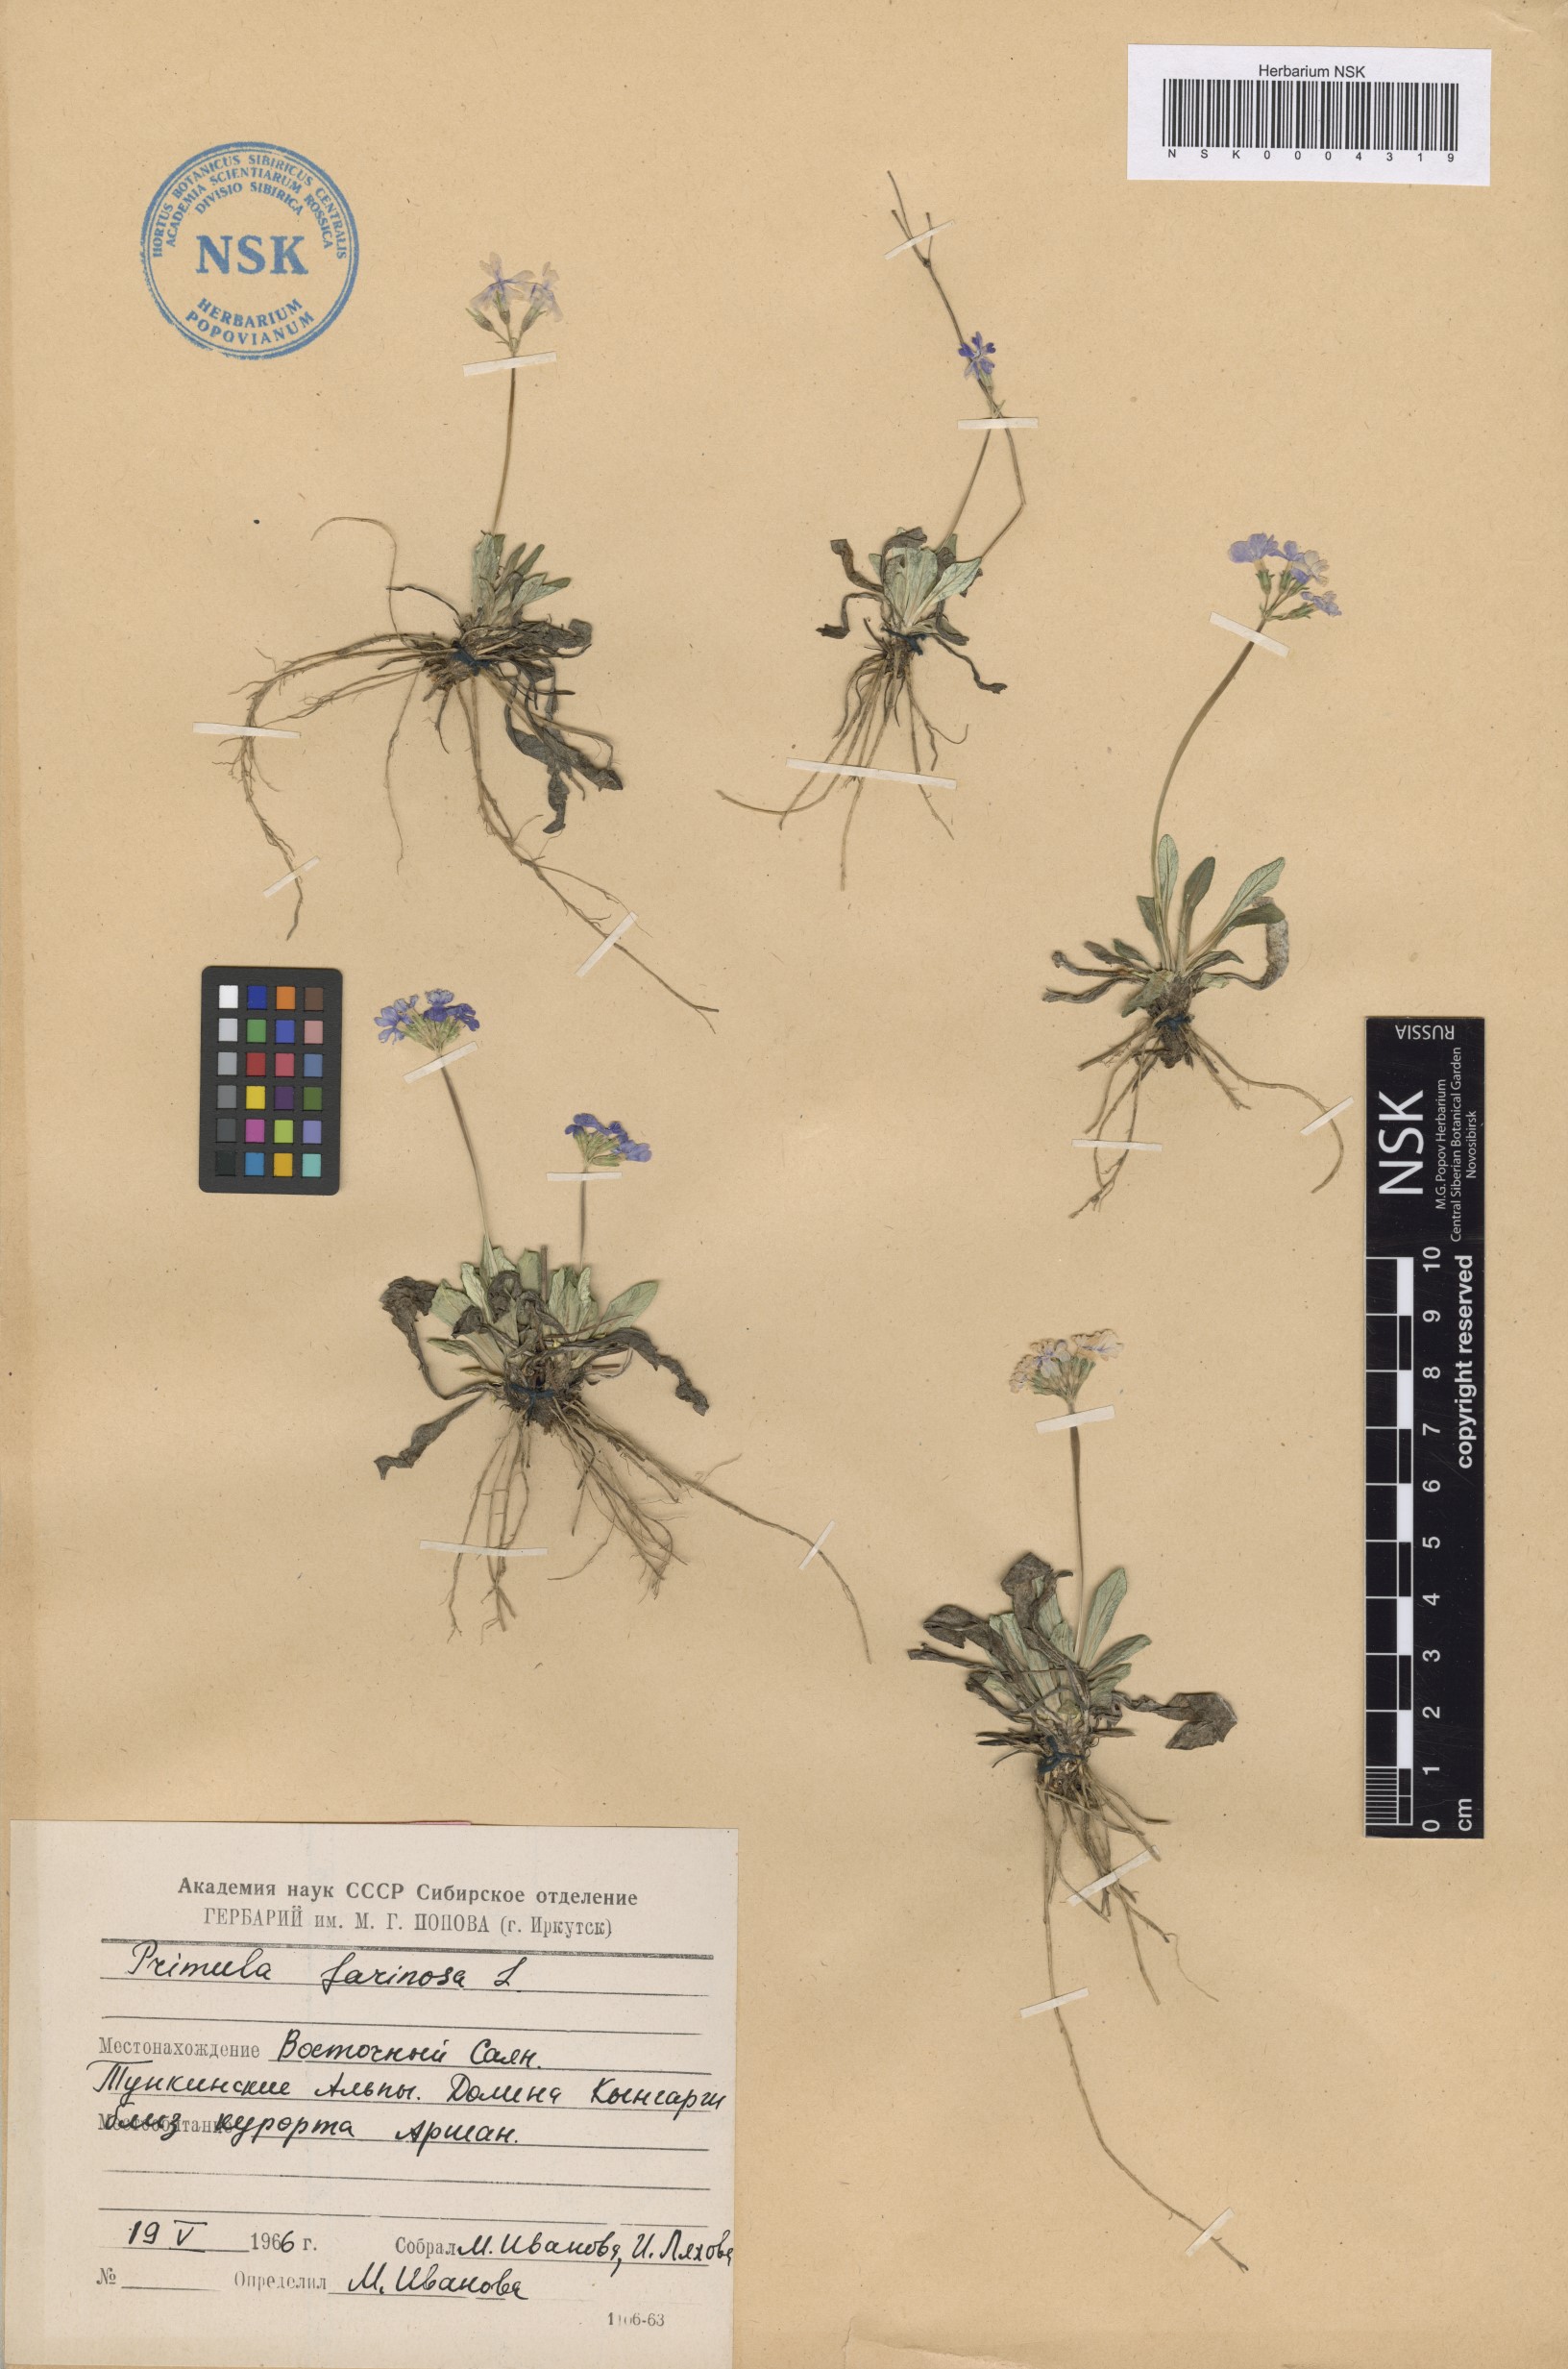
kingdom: Plantae
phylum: Tracheophyta
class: Magnoliopsida
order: Ericales
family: Primulaceae
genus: Primula
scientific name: Primula farinosa
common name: Bird's-eye primrose
